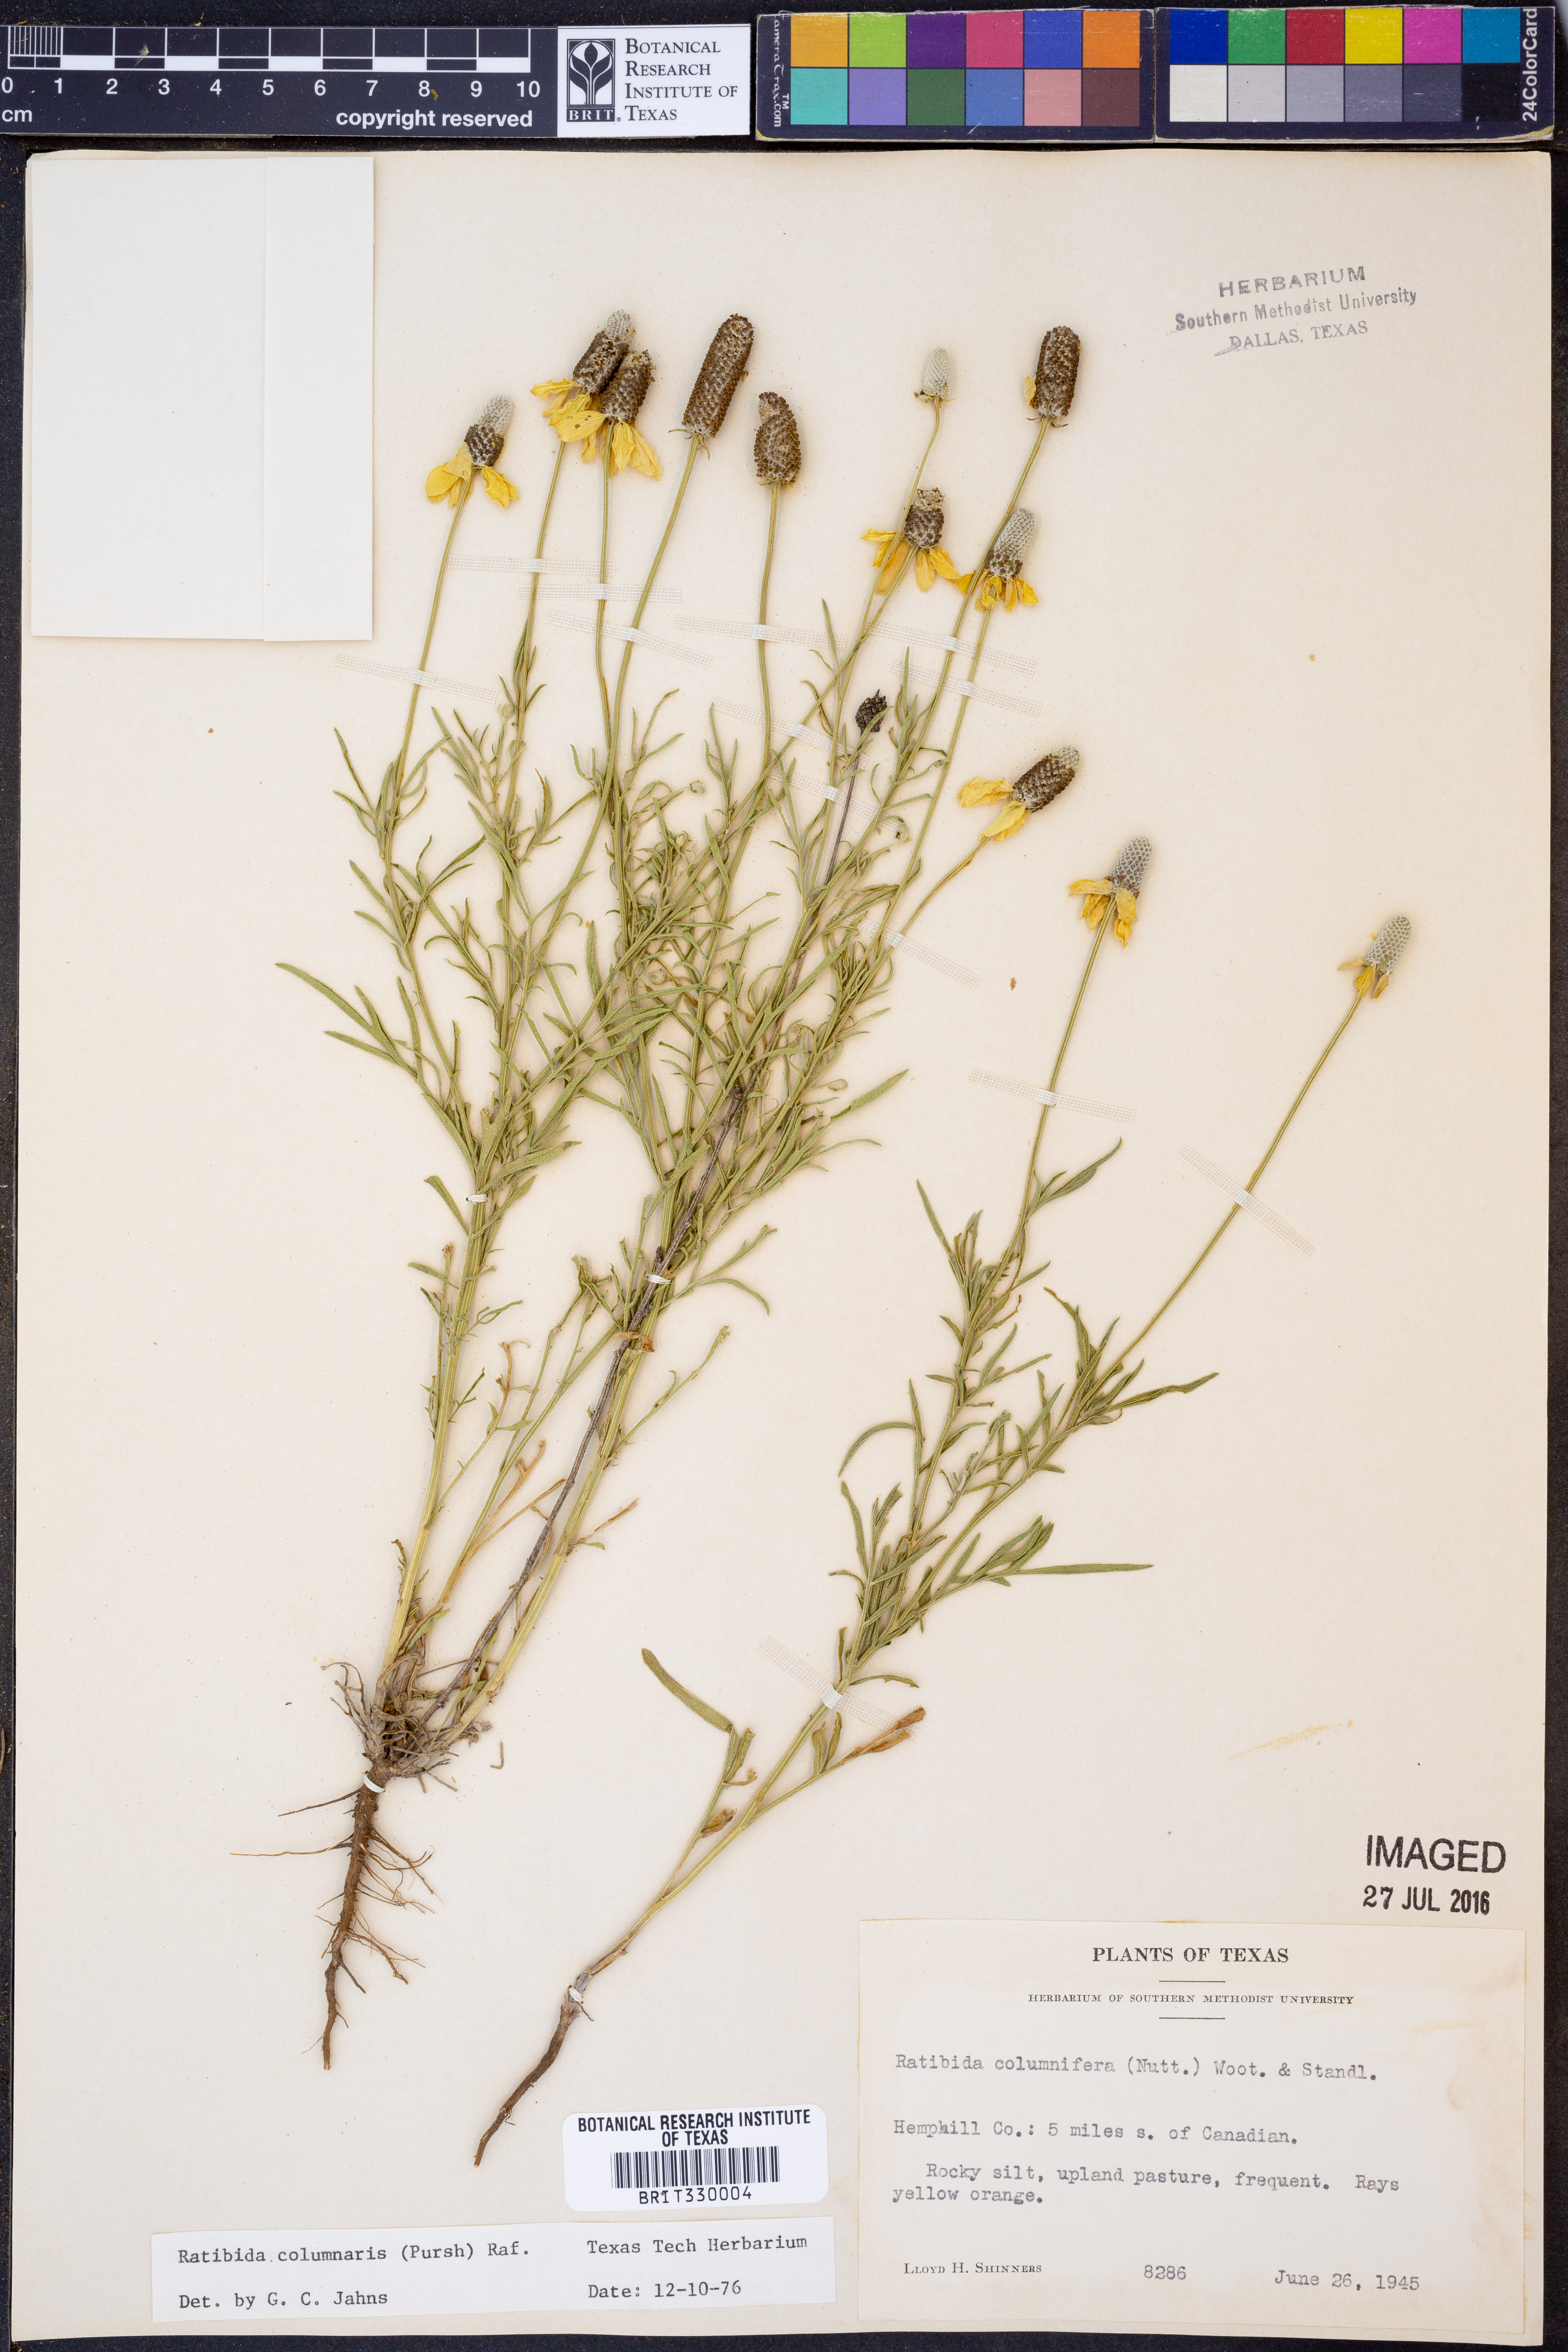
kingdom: Plantae
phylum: Tracheophyta
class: Magnoliopsida
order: Asterales
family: Asteraceae
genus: Ratibida
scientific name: Ratibida columnifera
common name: Prairie coneflower
